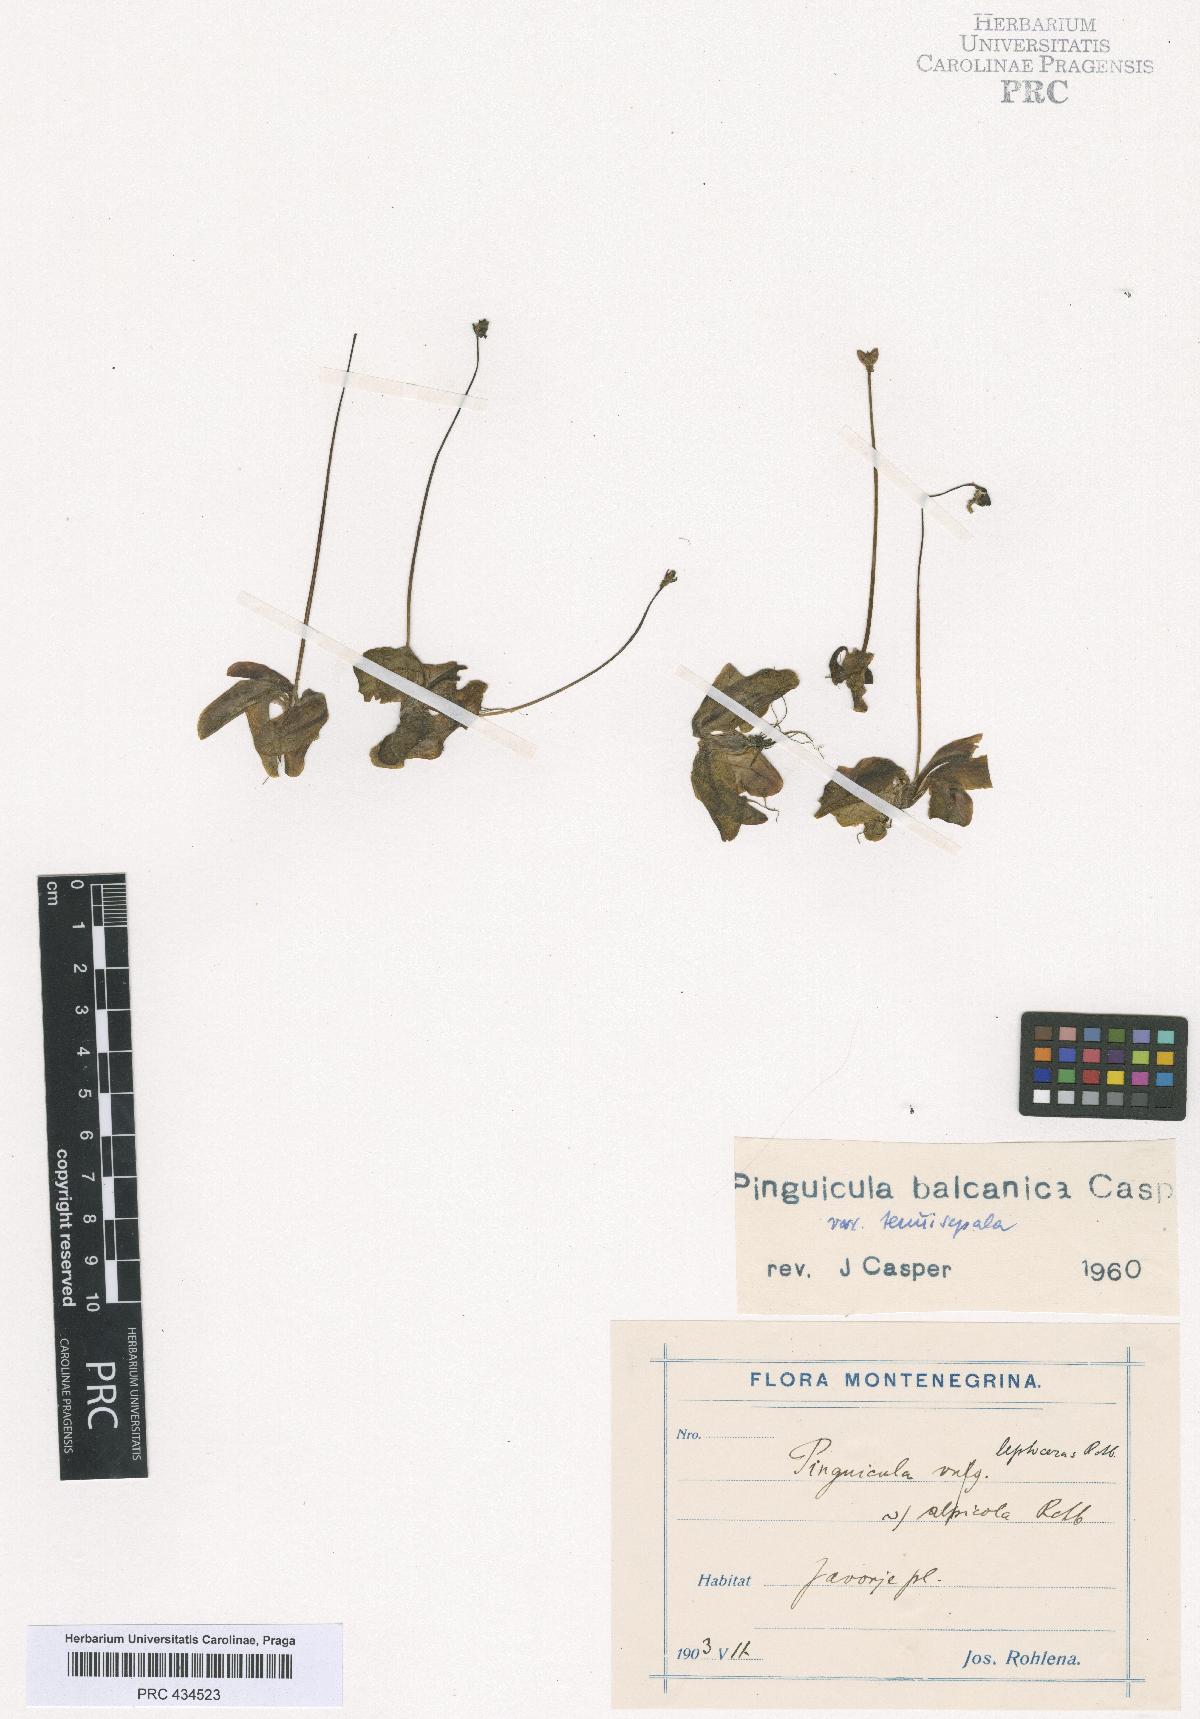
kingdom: Plantae
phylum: Tracheophyta
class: Magnoliopsida
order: Lamiales
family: Lentibulariaceae
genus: Pinguicula
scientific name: Pinguicula balcanica
